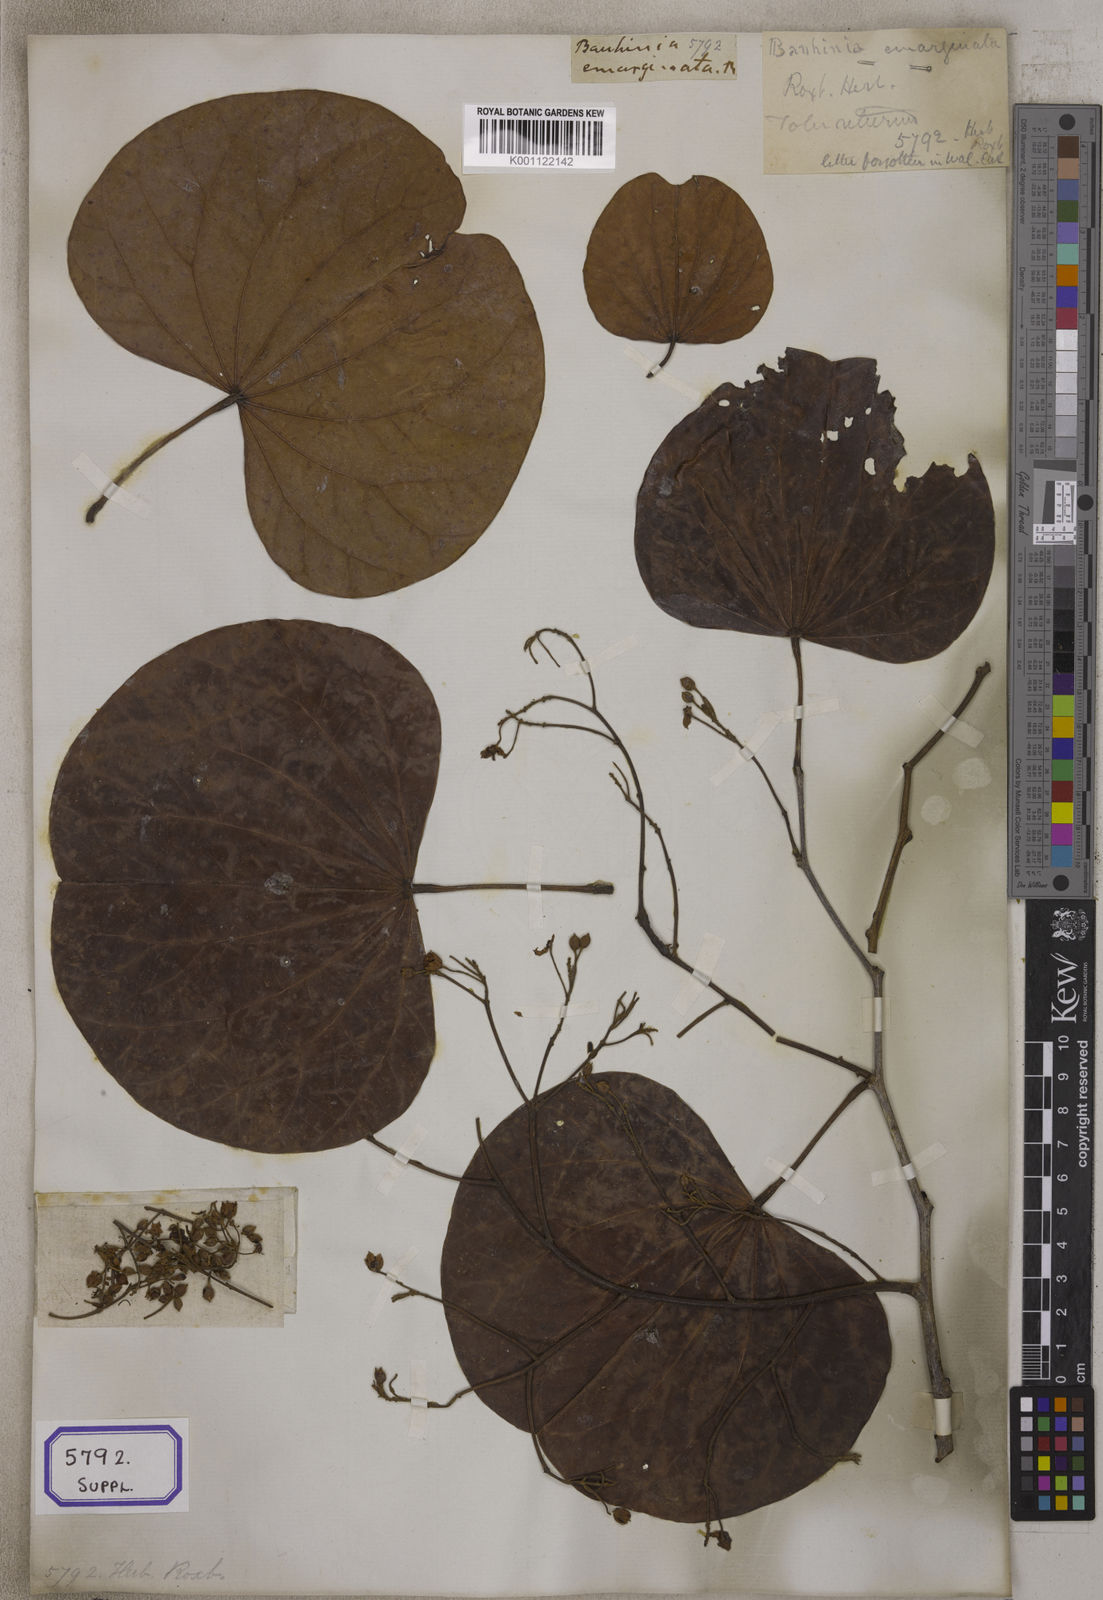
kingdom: Plantae
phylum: Tracheophyta
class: Magnoliopsida
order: Fabales
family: Fabaceae
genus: Bauhinia
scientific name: Bauhinia
